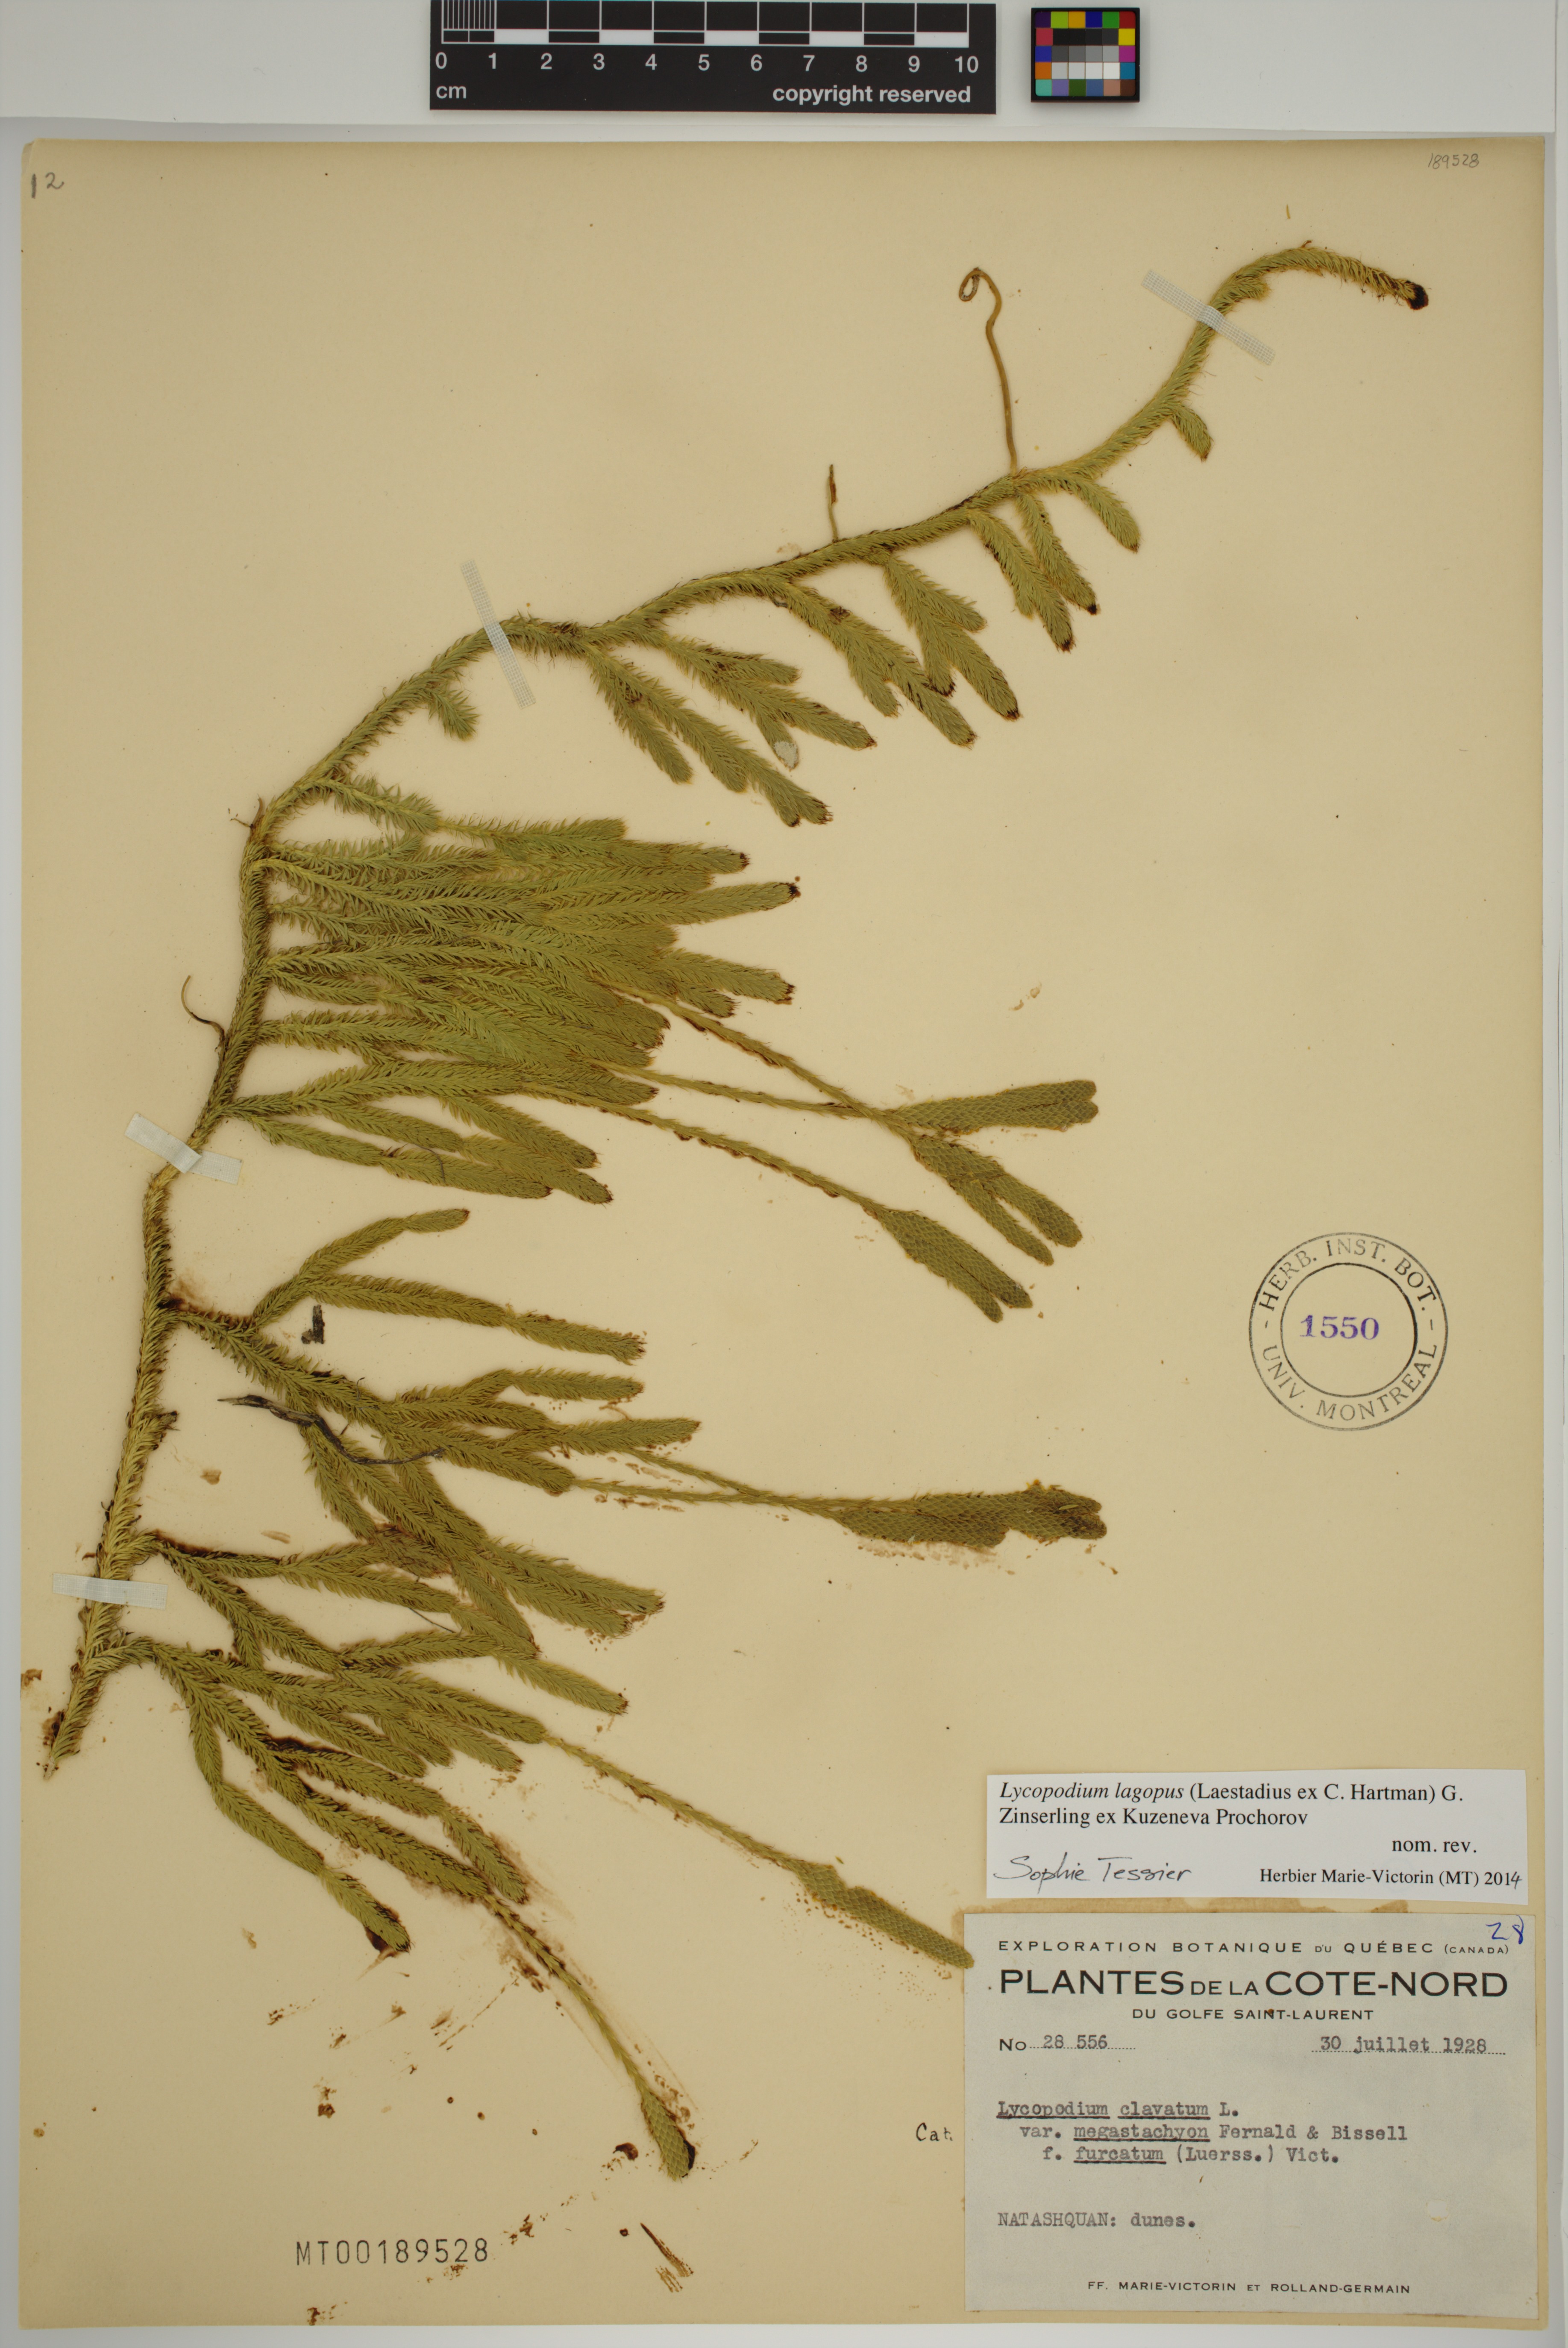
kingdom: Plantae
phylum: Tracheophyta
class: Lycopodiopsida
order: Lycopodiales
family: Lycopodiaceae
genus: Lycopodium
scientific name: Lycopodium lagopus
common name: One-cone clubmoss
